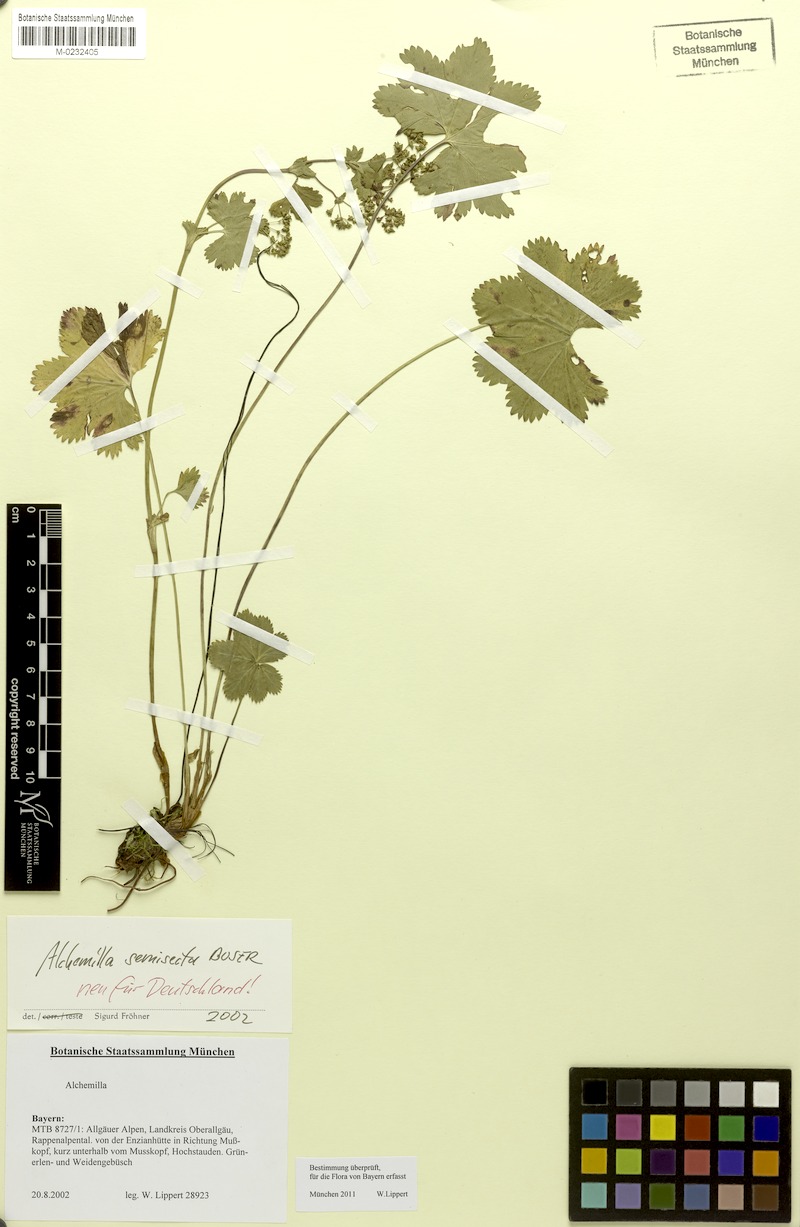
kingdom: Plantae
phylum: Tracheophyta
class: Magnoliopsida
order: Rosales
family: Rosaceae
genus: Alchemilla
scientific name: Alchemilla semisecta
